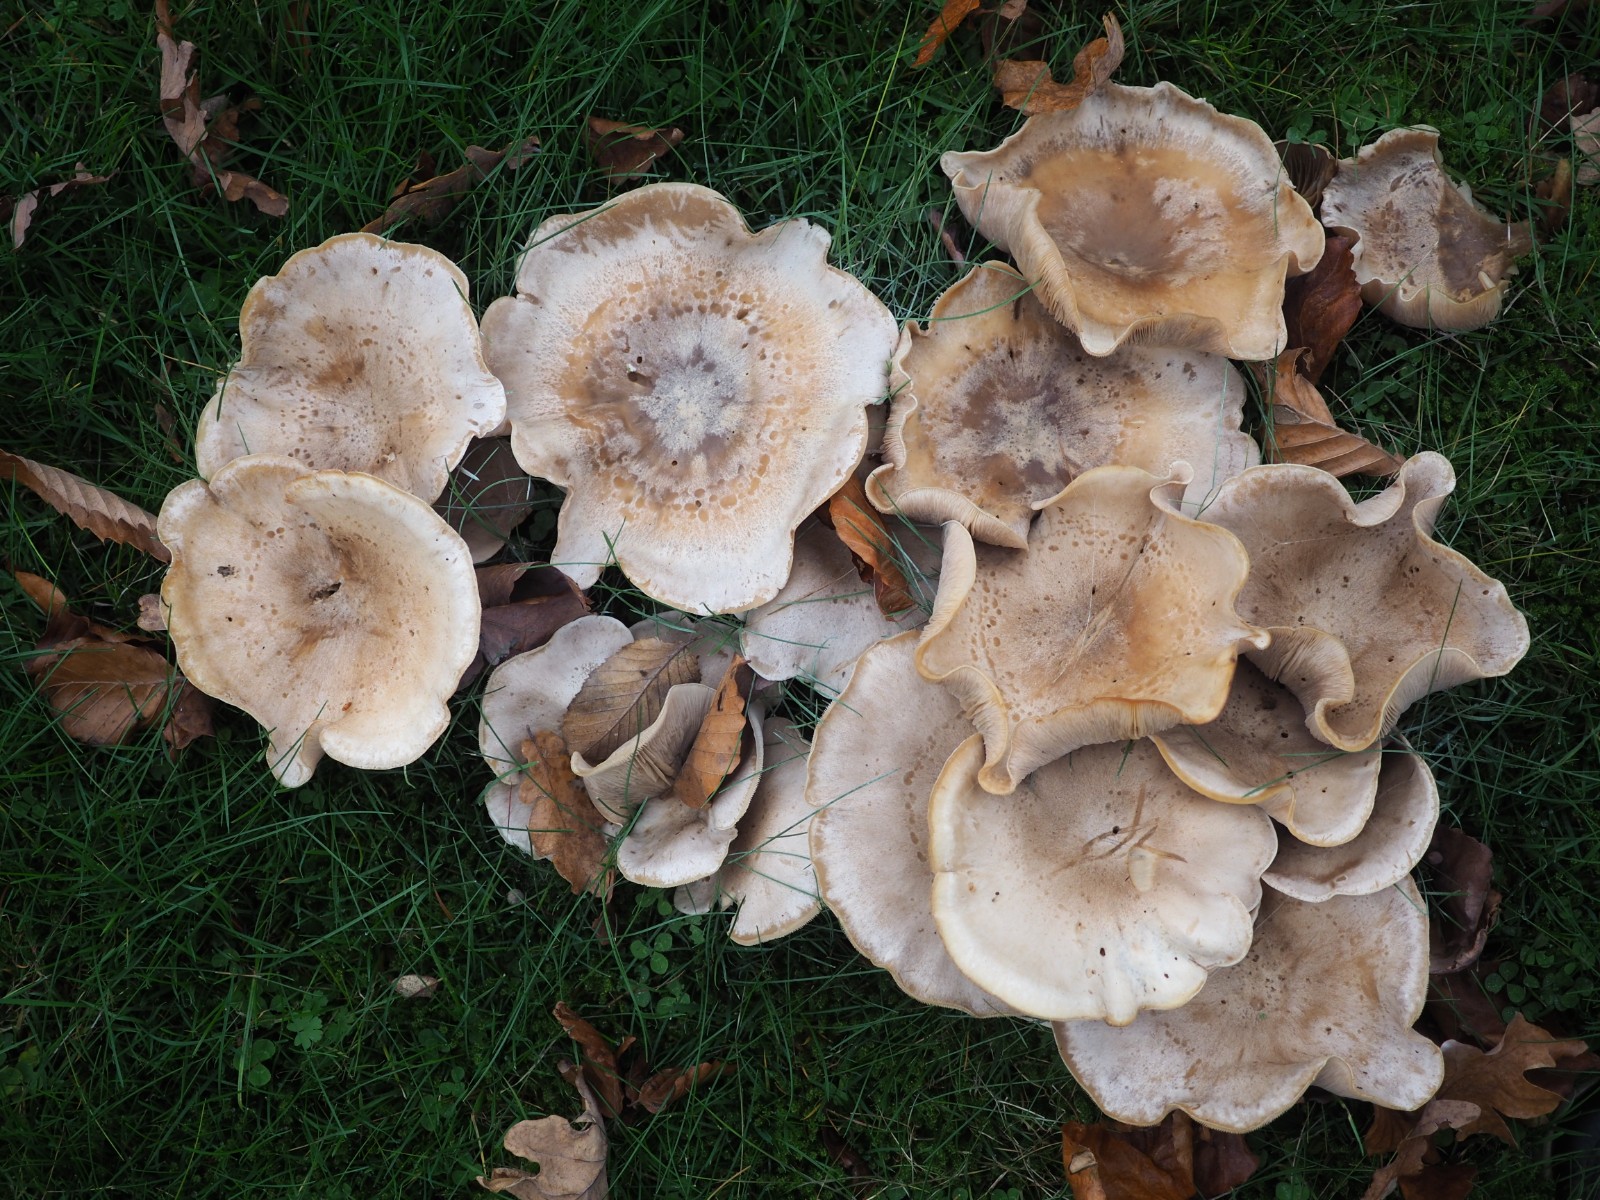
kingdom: Fungi
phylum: Basidiomycota
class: Agaricomycetes
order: Agaricales
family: Tricholomataceae
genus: Lepista
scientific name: Lepista panaeolus
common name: marmoreret hekseringshat
